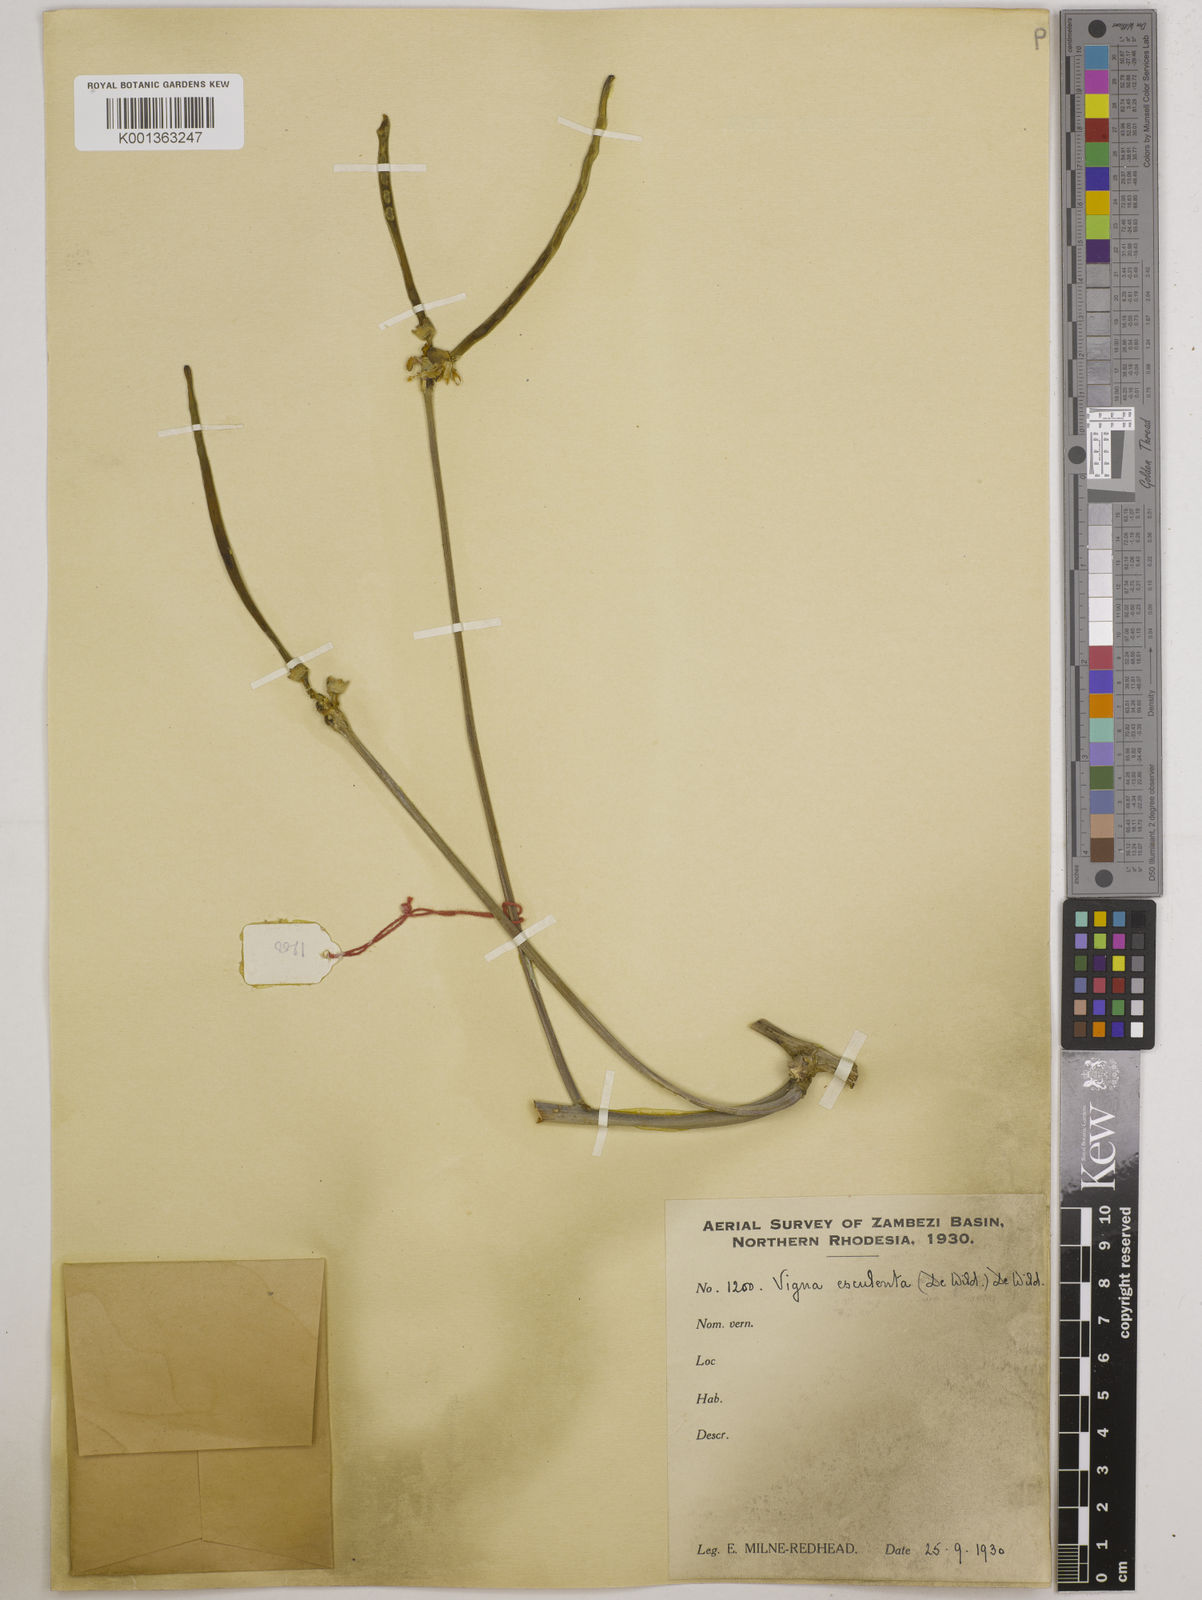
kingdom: Plantae
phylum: Tracheophyta
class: Magnoliopsida
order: Fabales
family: Fabaceae
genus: Vigna
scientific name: Vigna
